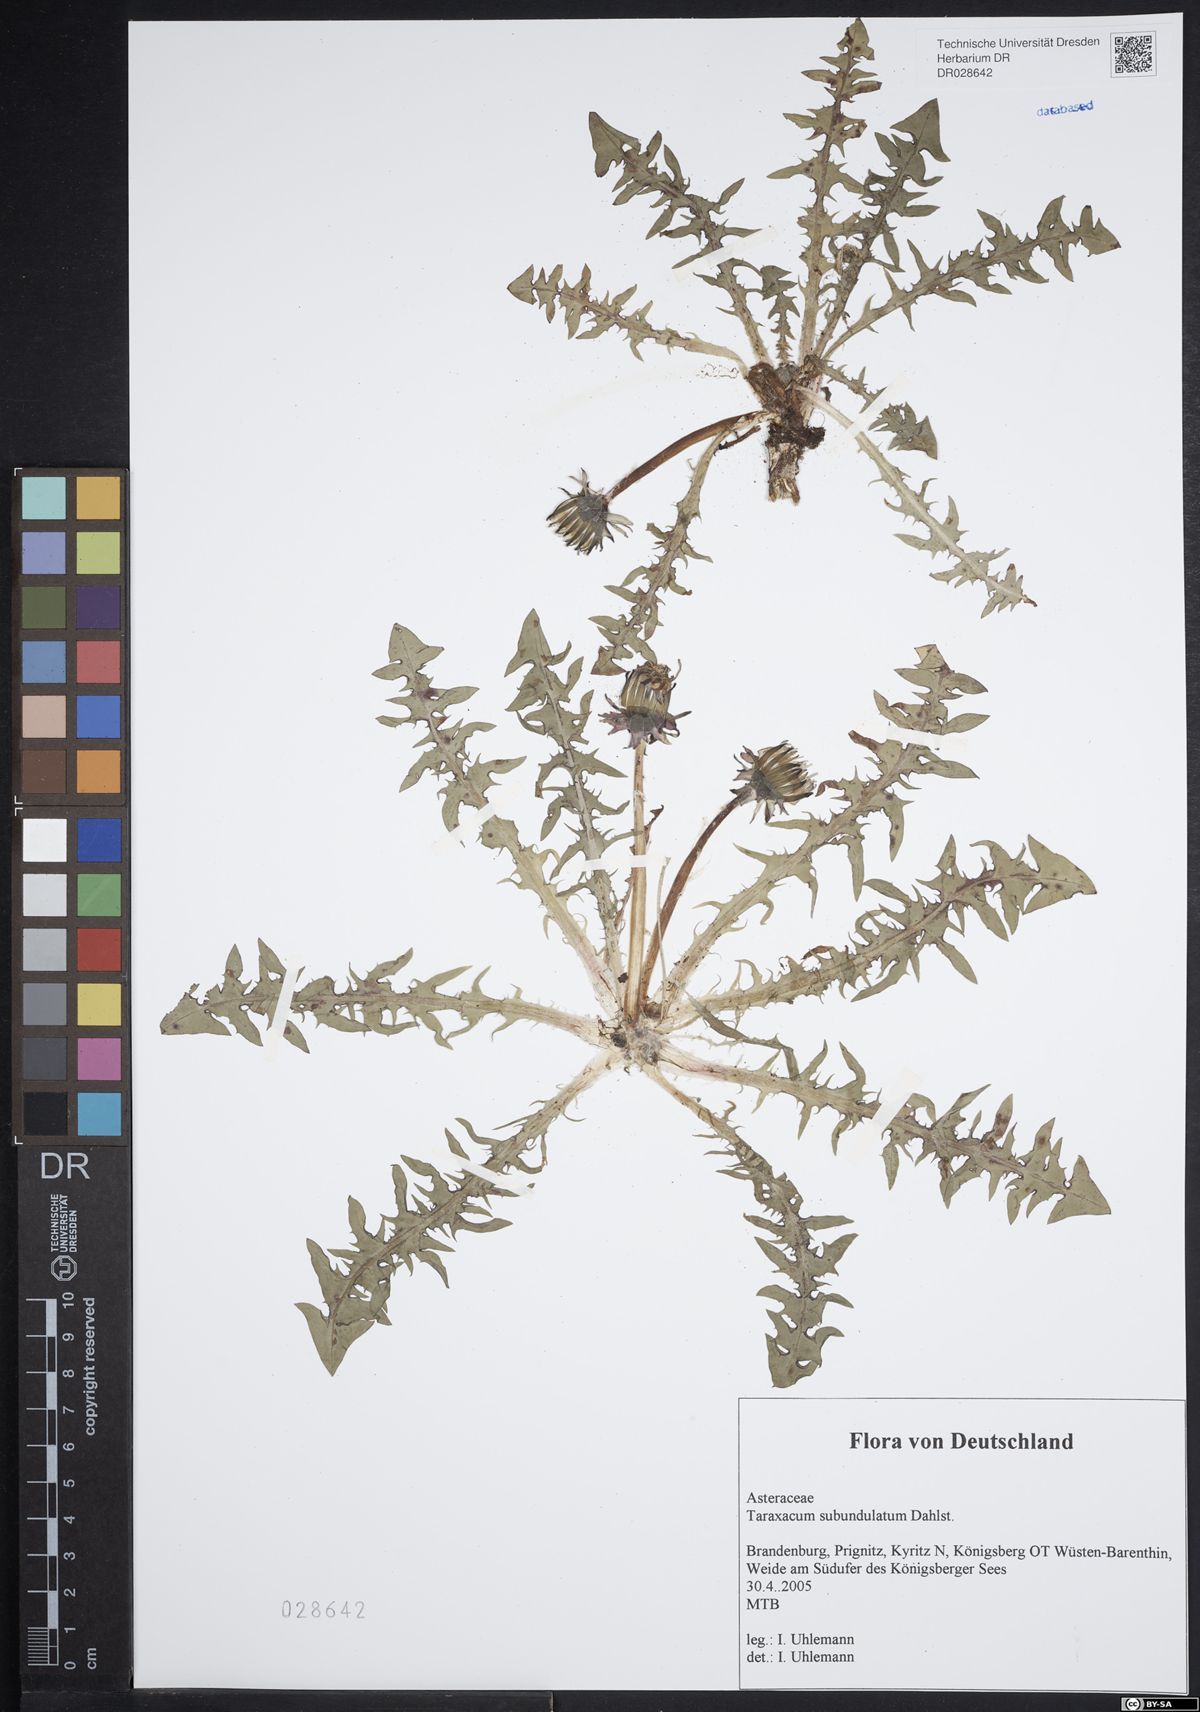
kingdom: Plantae
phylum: Tracheophyta
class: Magnoliopsida
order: Asterales
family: Asteraceae
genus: Taraxacum
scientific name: Taraxacum subundulatum
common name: Complex-leaved dandelion
